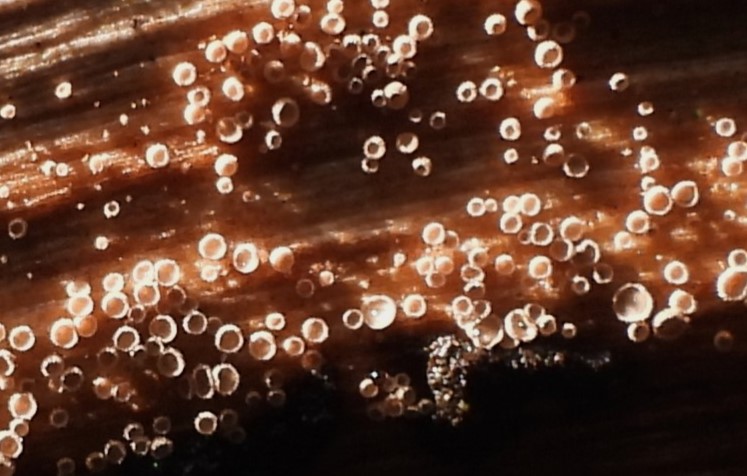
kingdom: Fungi
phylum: Basidiomycota
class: Agaricomycetes
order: Agaricales
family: Niaceae
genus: Merismodes
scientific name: Merismodes
